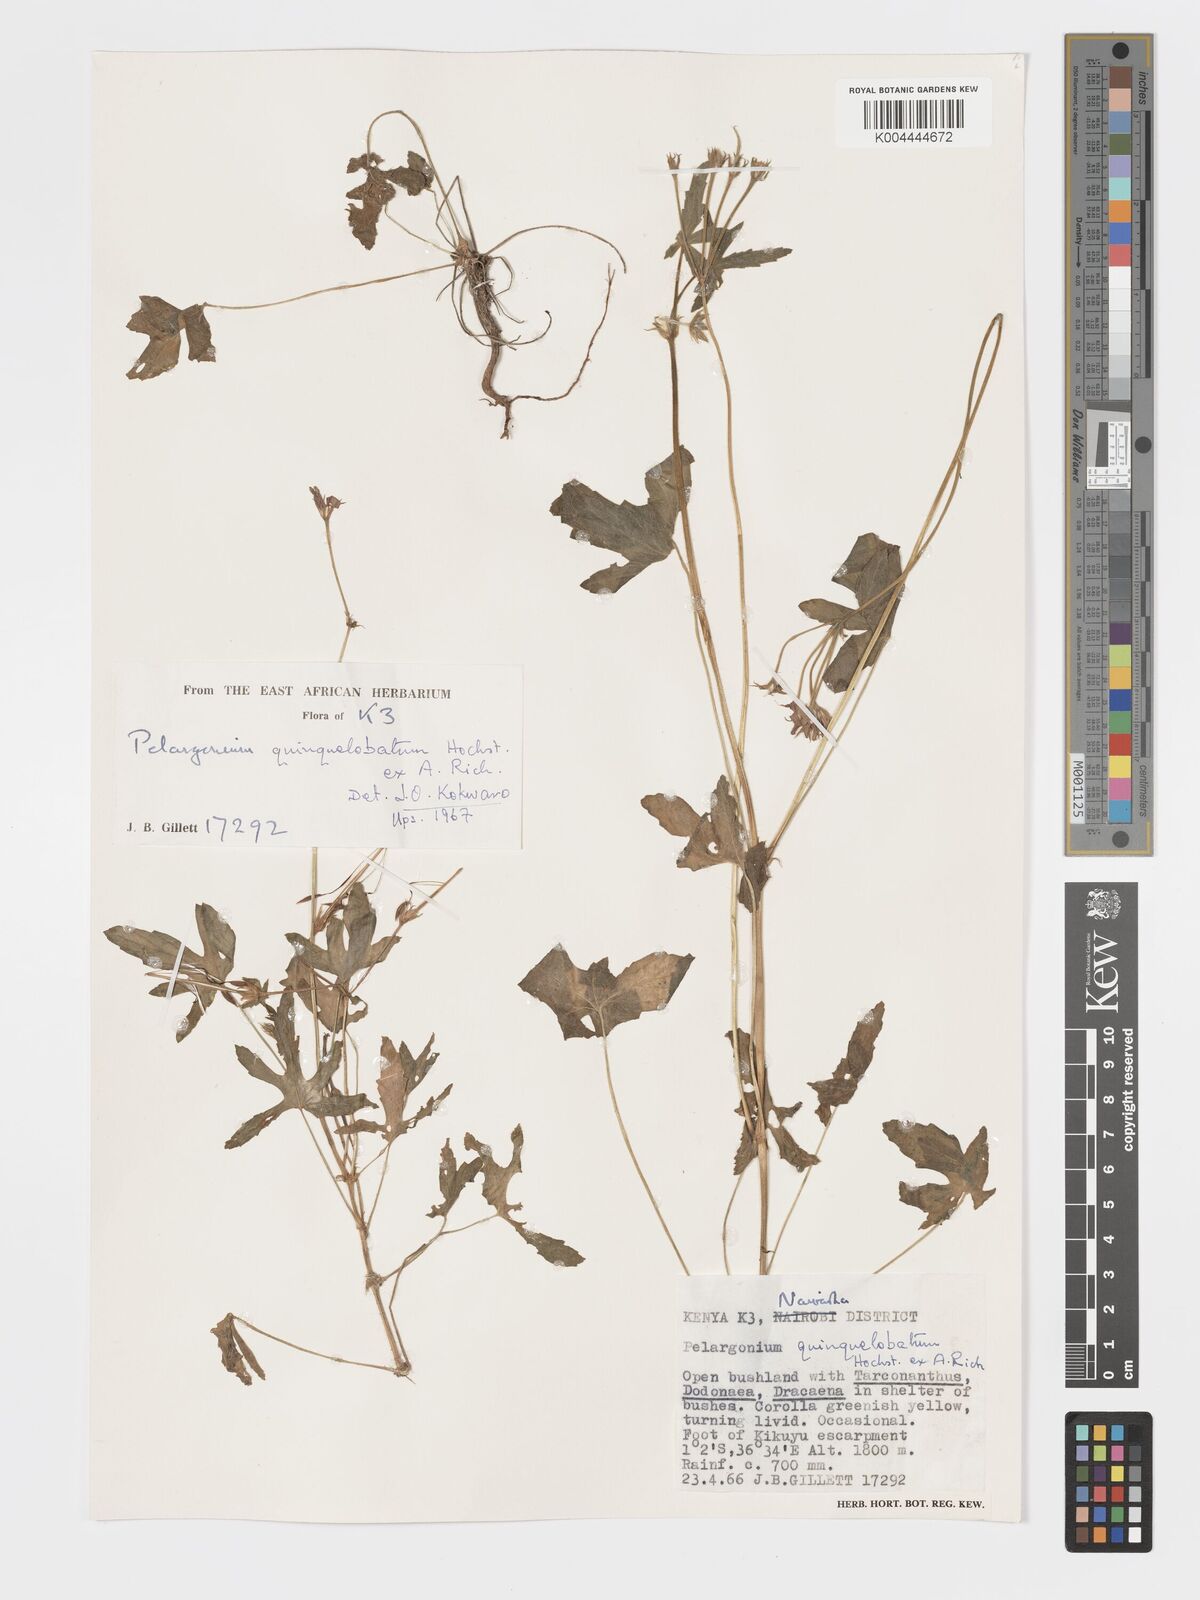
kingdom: Plantae
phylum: Tracheophyta
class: Magnoliopsida
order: Geraniales
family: Geraniaceae
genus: Pelargonium
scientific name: Pelargonium quinquelobatum
